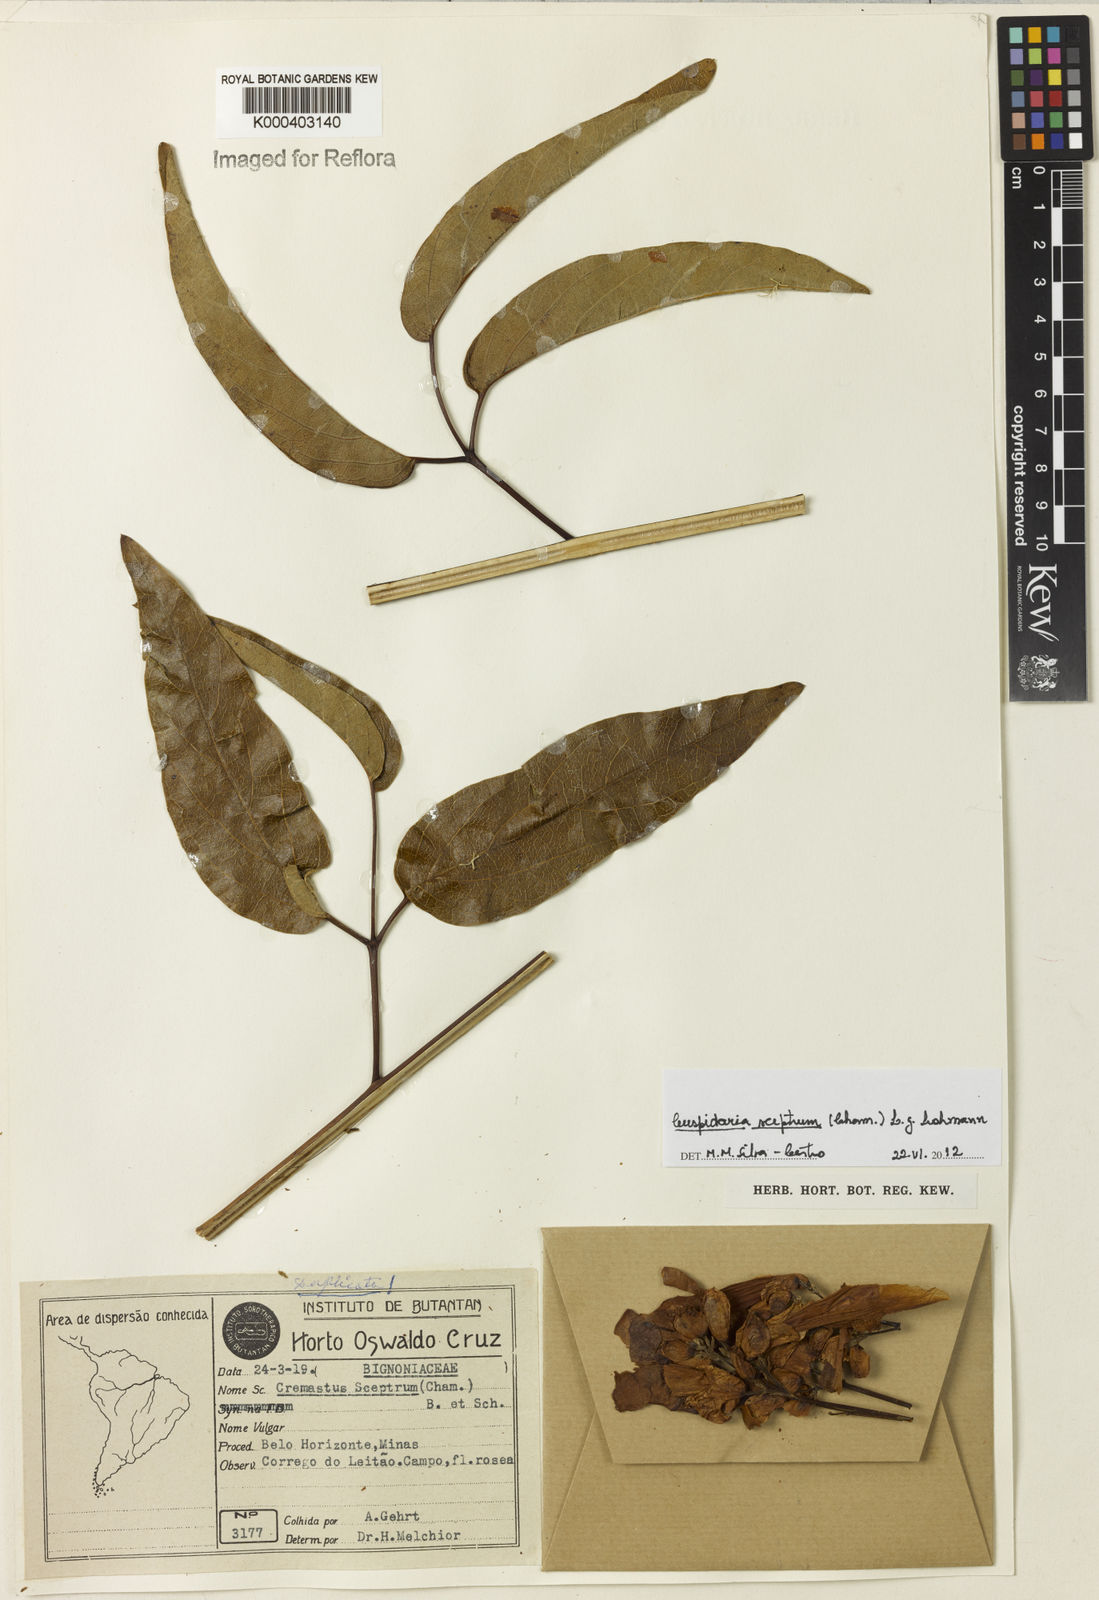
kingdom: Plantae
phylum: Tracheophyta
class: Magnoliopsida
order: Lamiales
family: Bignoniaceae
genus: Cuspidaria
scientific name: Cuspidaria sceptrum
